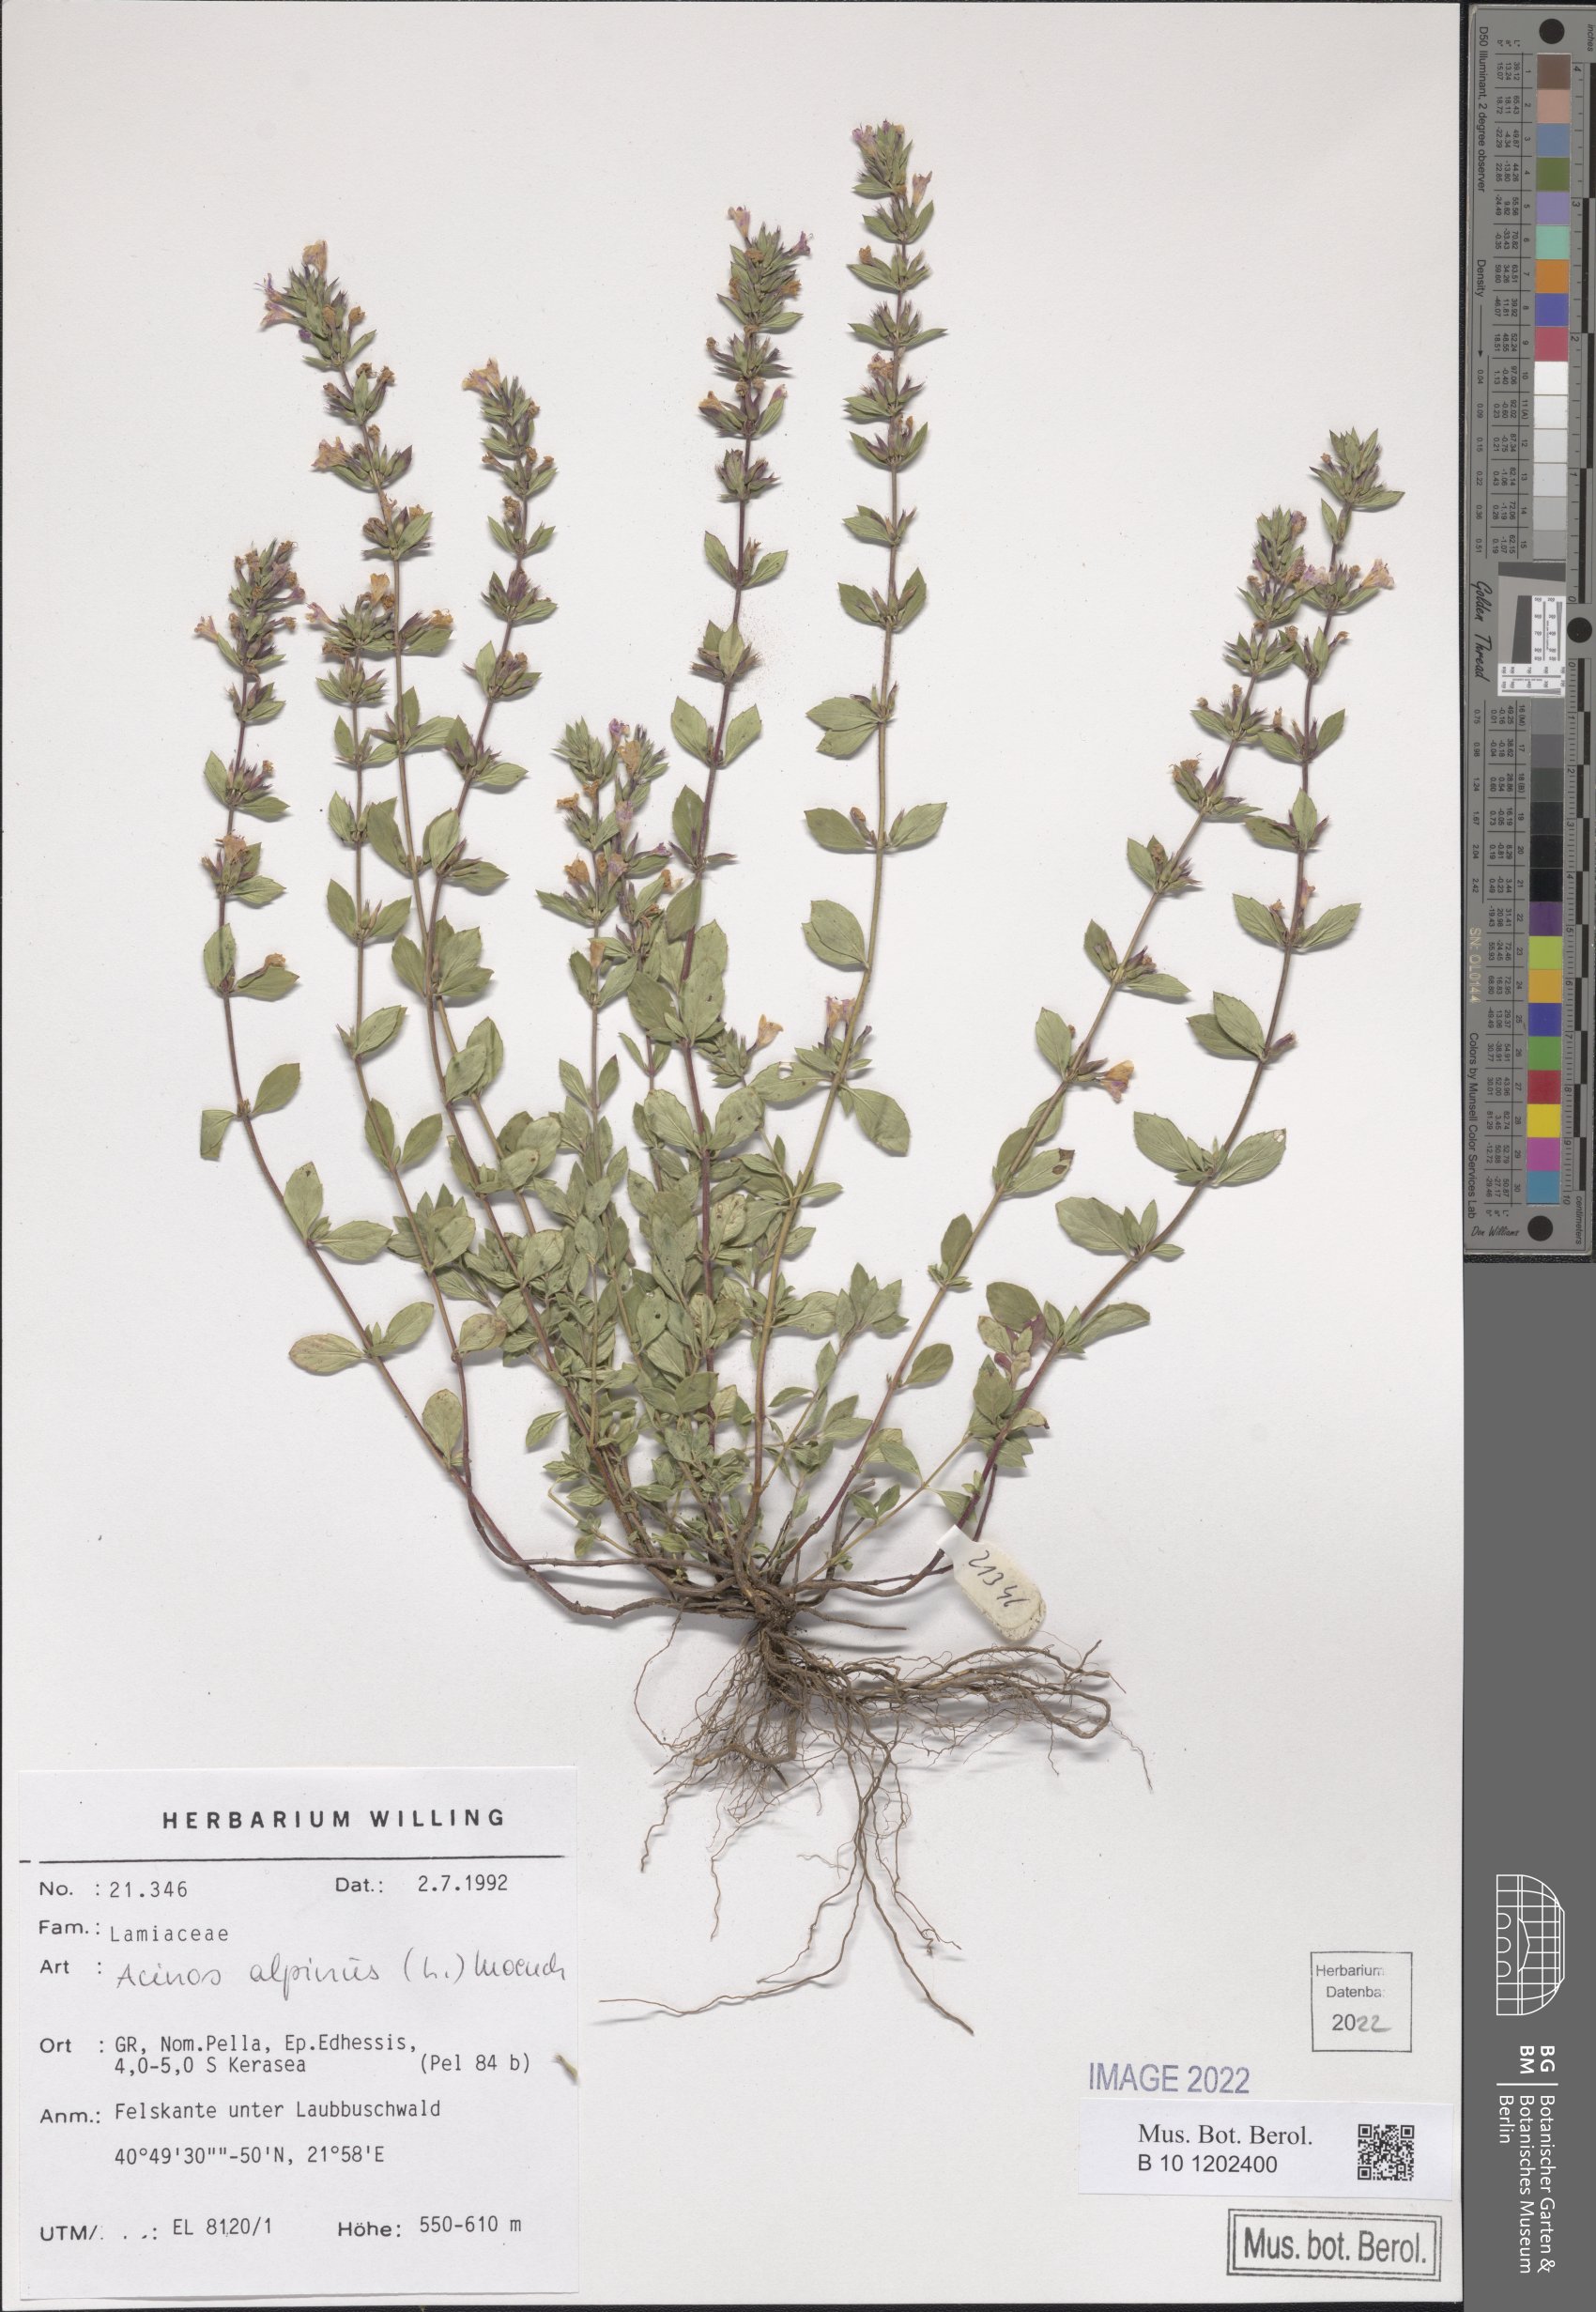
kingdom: Plantae
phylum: Tracheophyta
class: Magnoliopsida
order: Lamiales
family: Lamiaceae
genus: Clinopodium
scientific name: Clinopodium alpinum
